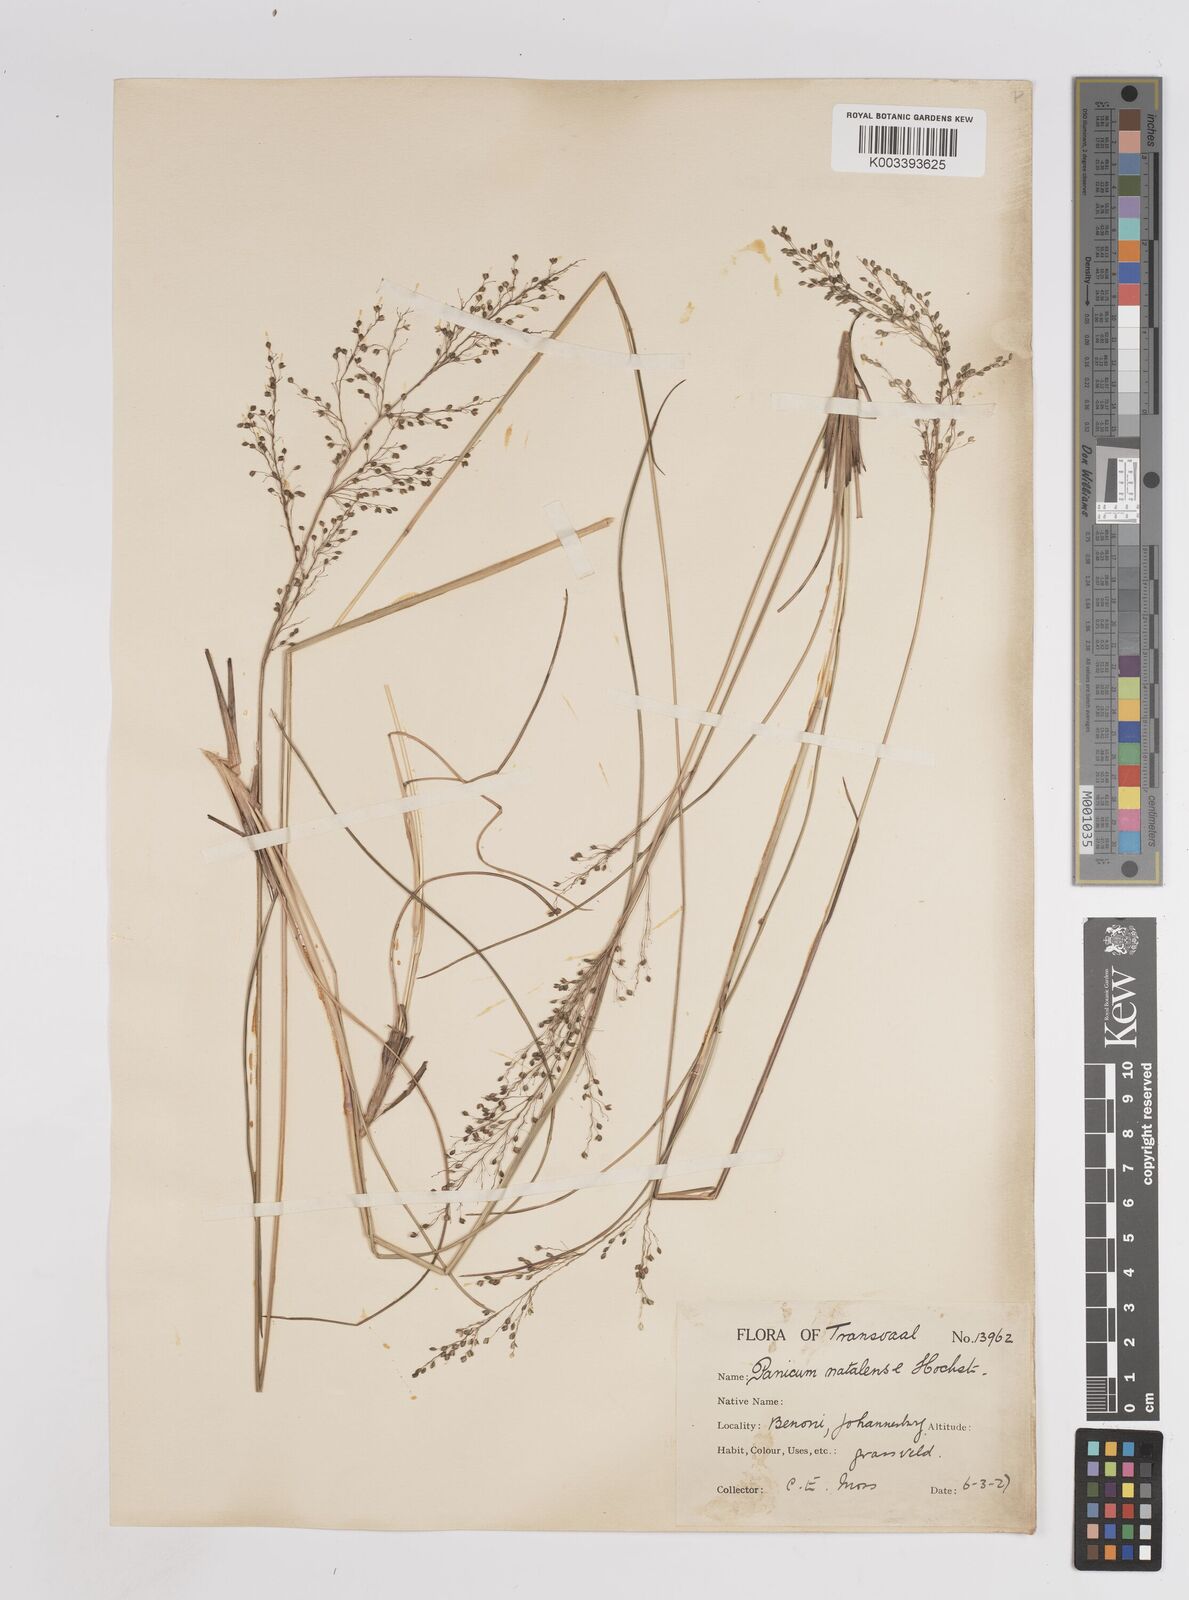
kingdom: Plantae
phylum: Tracheophyta
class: Liliopsida
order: Poales
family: Poaceae
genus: Trichanthecium
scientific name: Trichanthecium natalense
